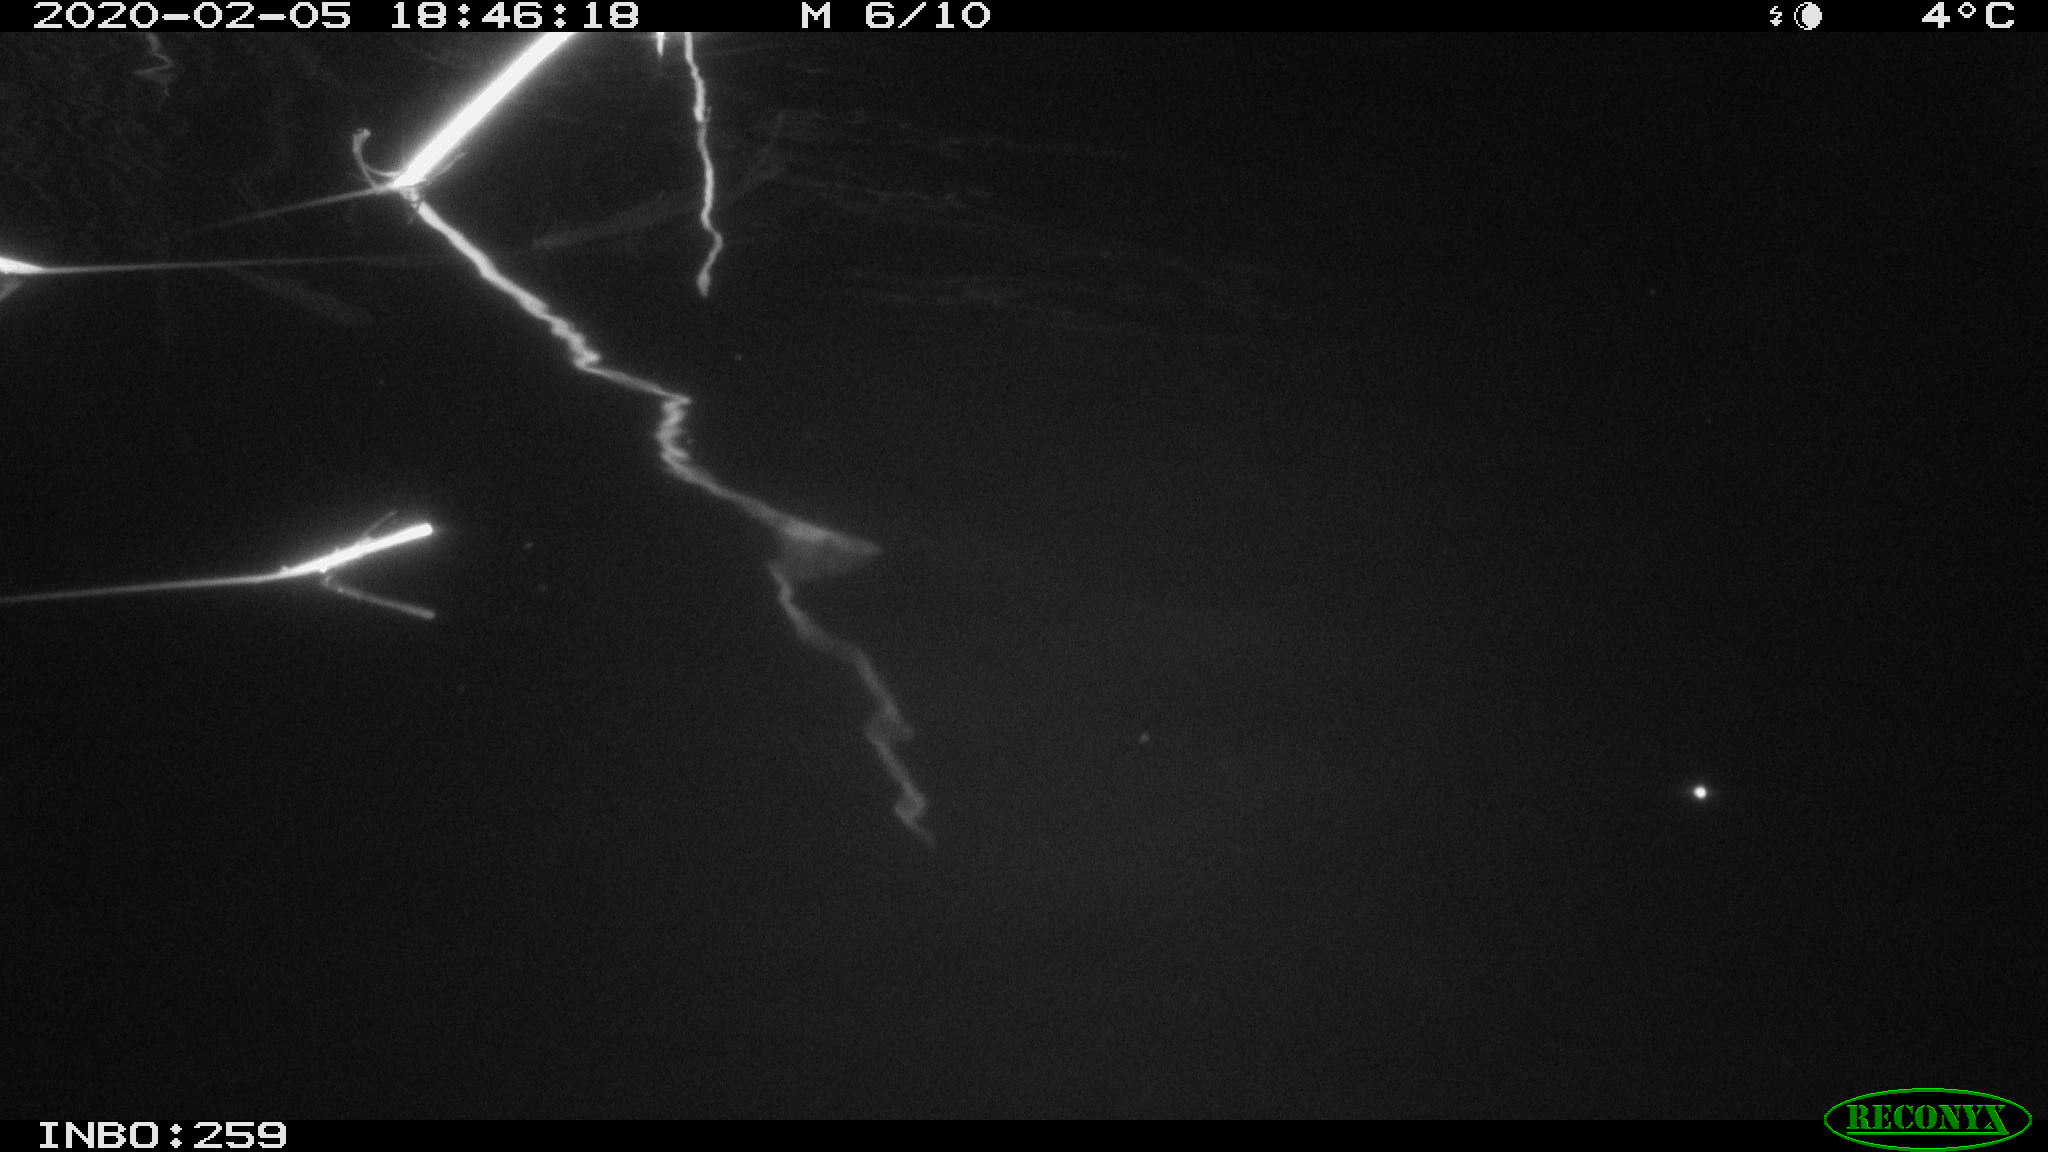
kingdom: Animalia
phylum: Chordata
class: Mammalia
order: Rodentia
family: Cricetidae
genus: Ondatra
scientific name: Ondatra zibethicus
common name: Muskrat
